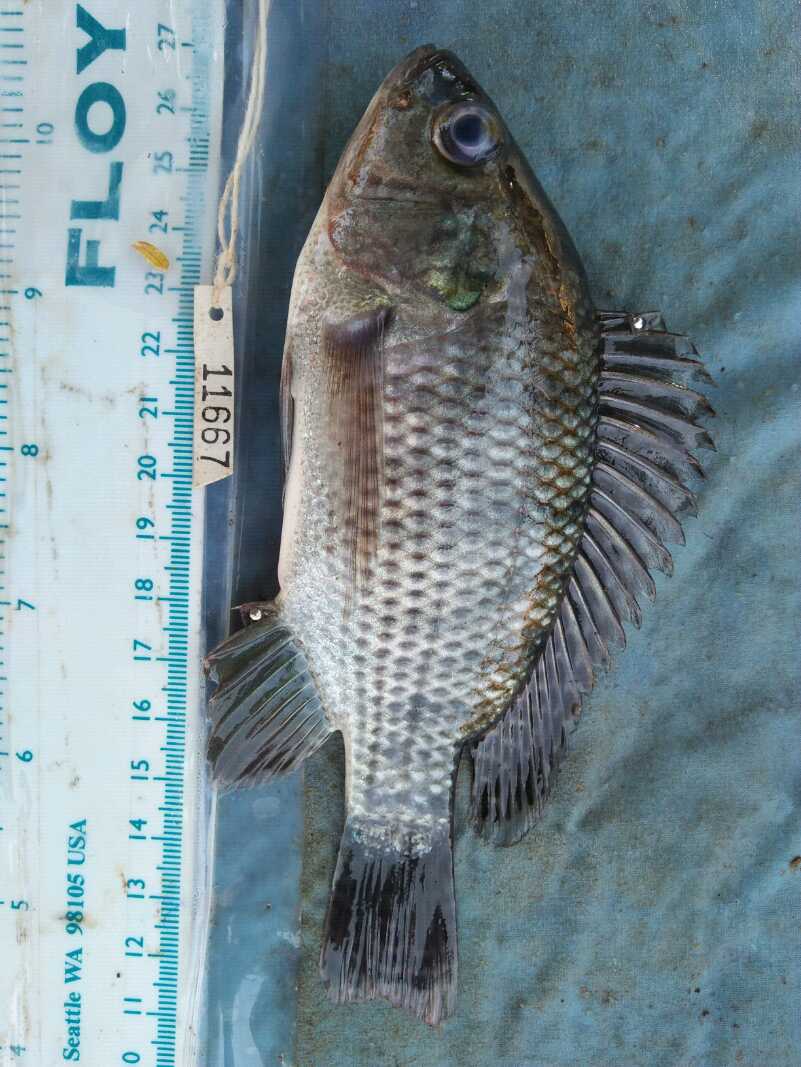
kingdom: Animalia
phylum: Chordata
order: Perciformes
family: Cichlidae
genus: Oreochromis
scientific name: Oreochromis niloticus
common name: Nile tilapia
